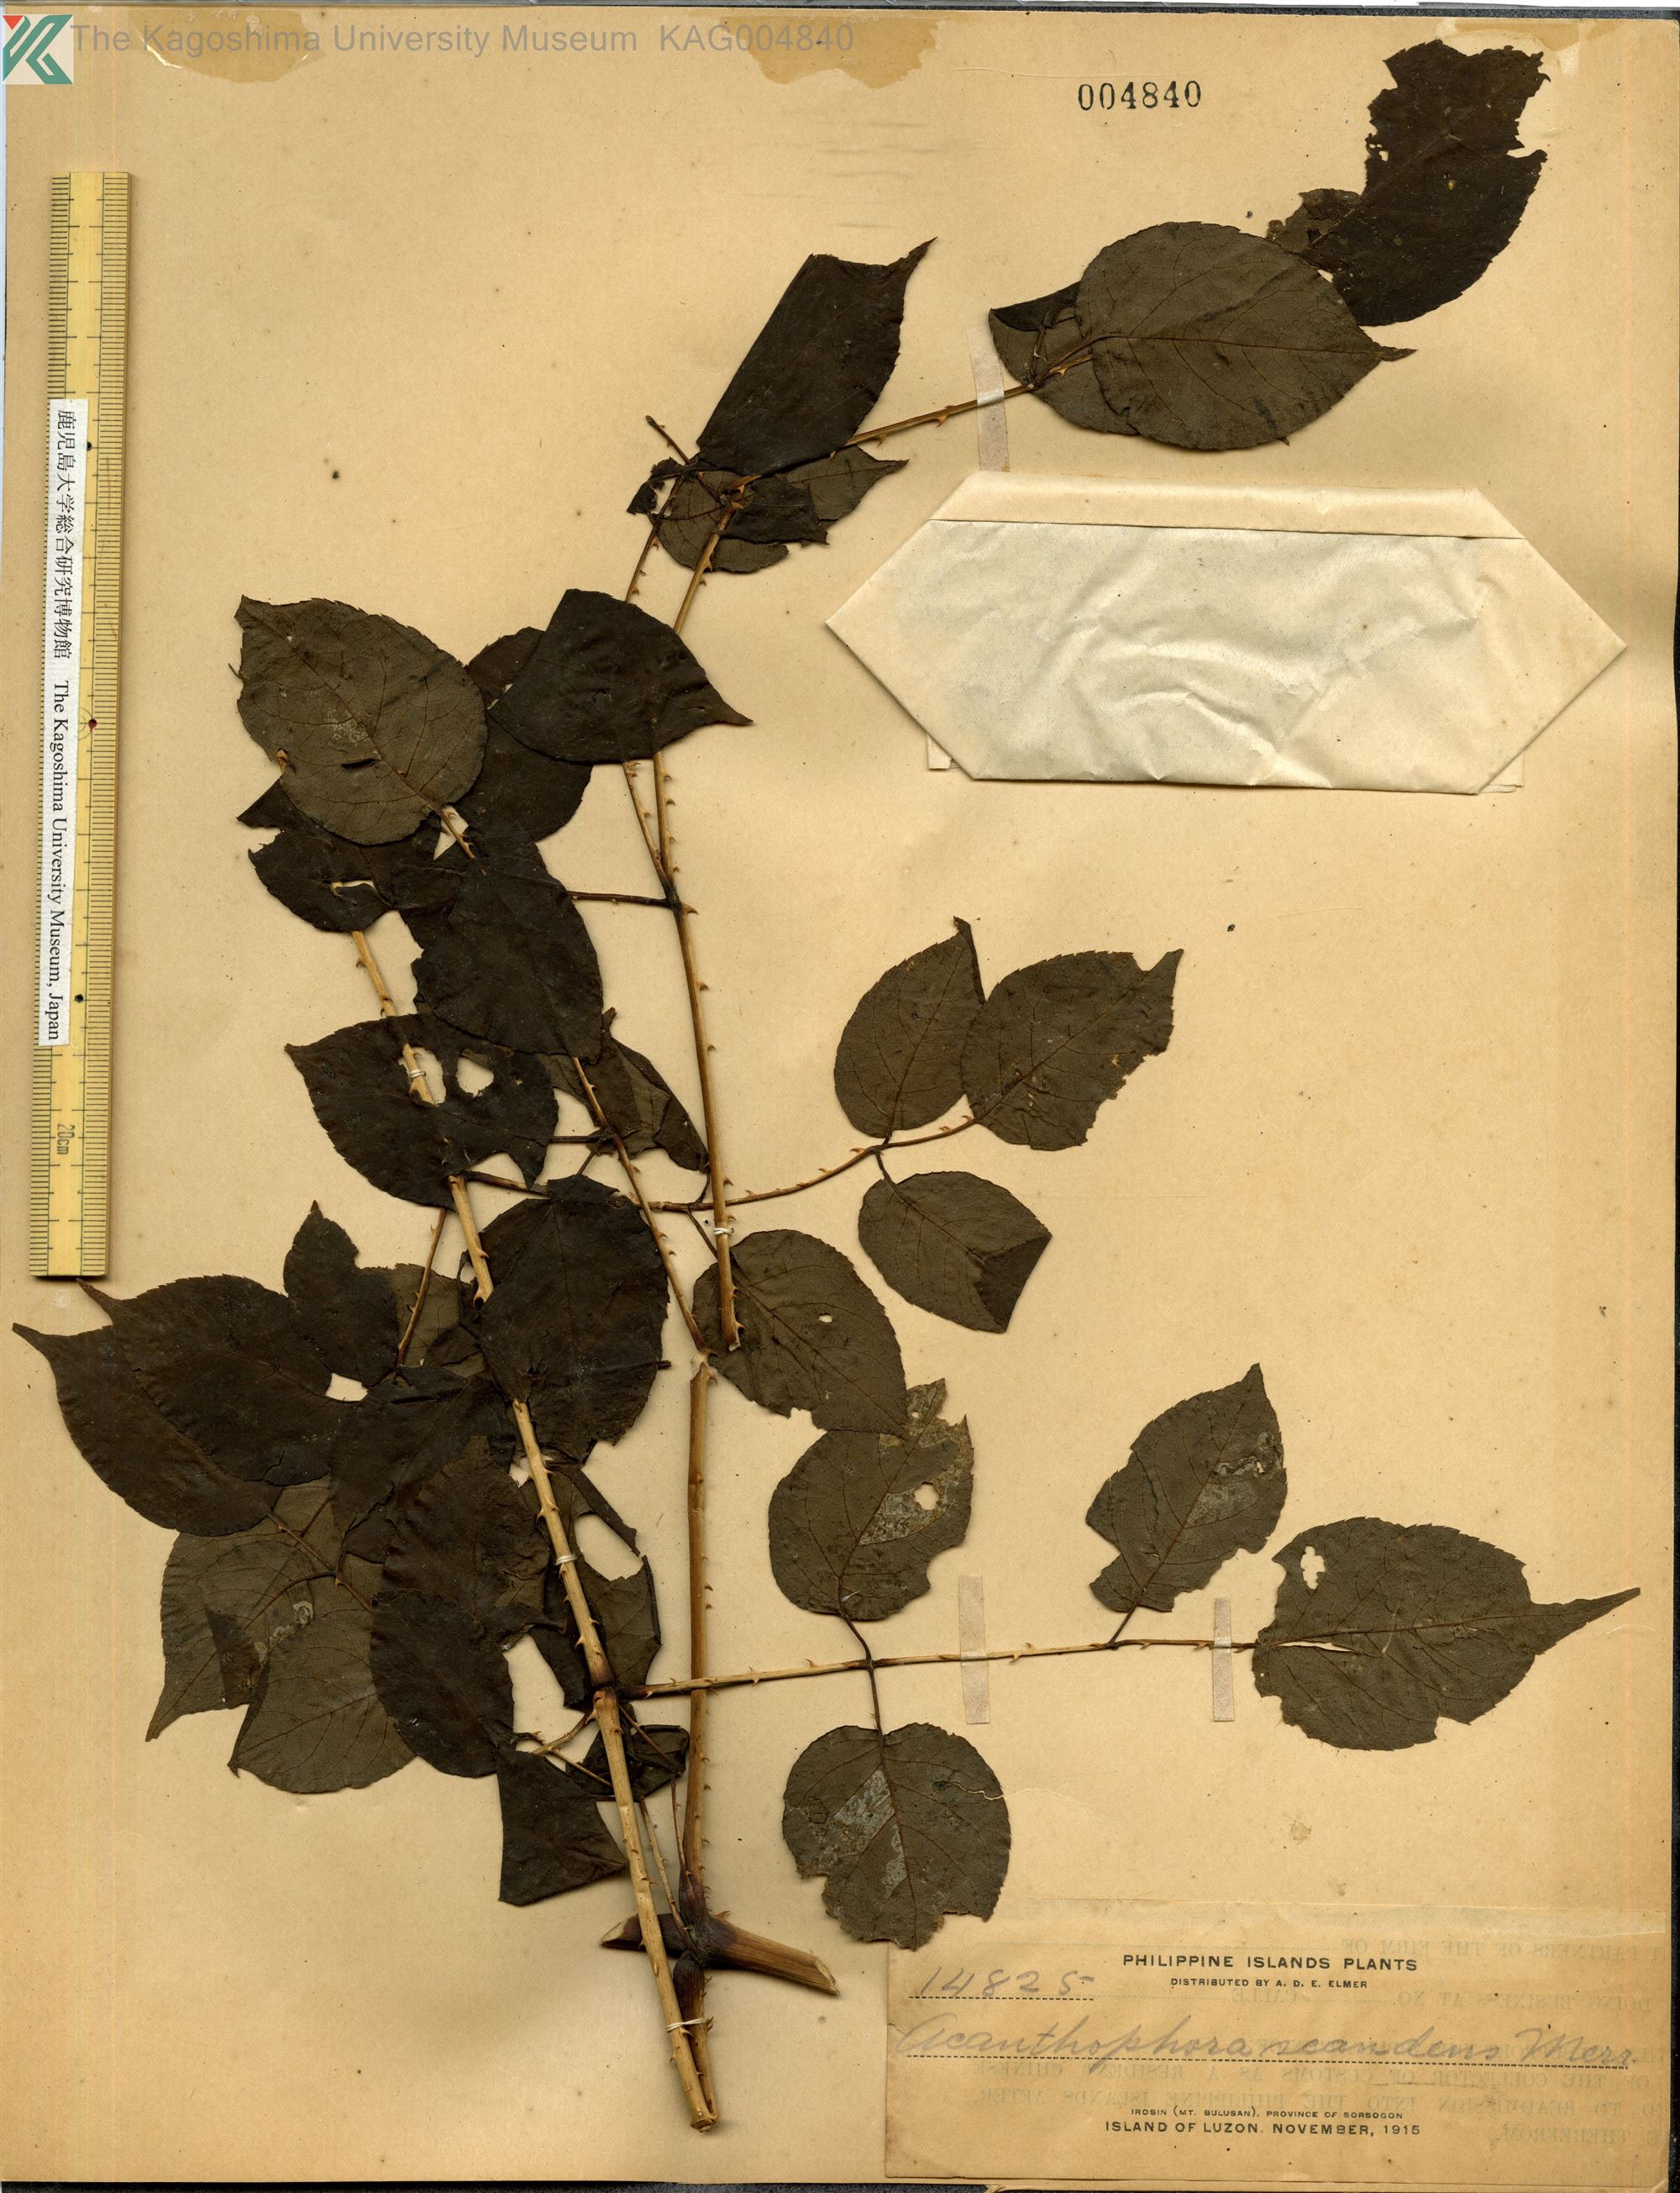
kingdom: Plantae
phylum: Tracheophyta
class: Magnoliopsida
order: Apiales
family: Araliaceae
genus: Aralia
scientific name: Aralia merrillii
